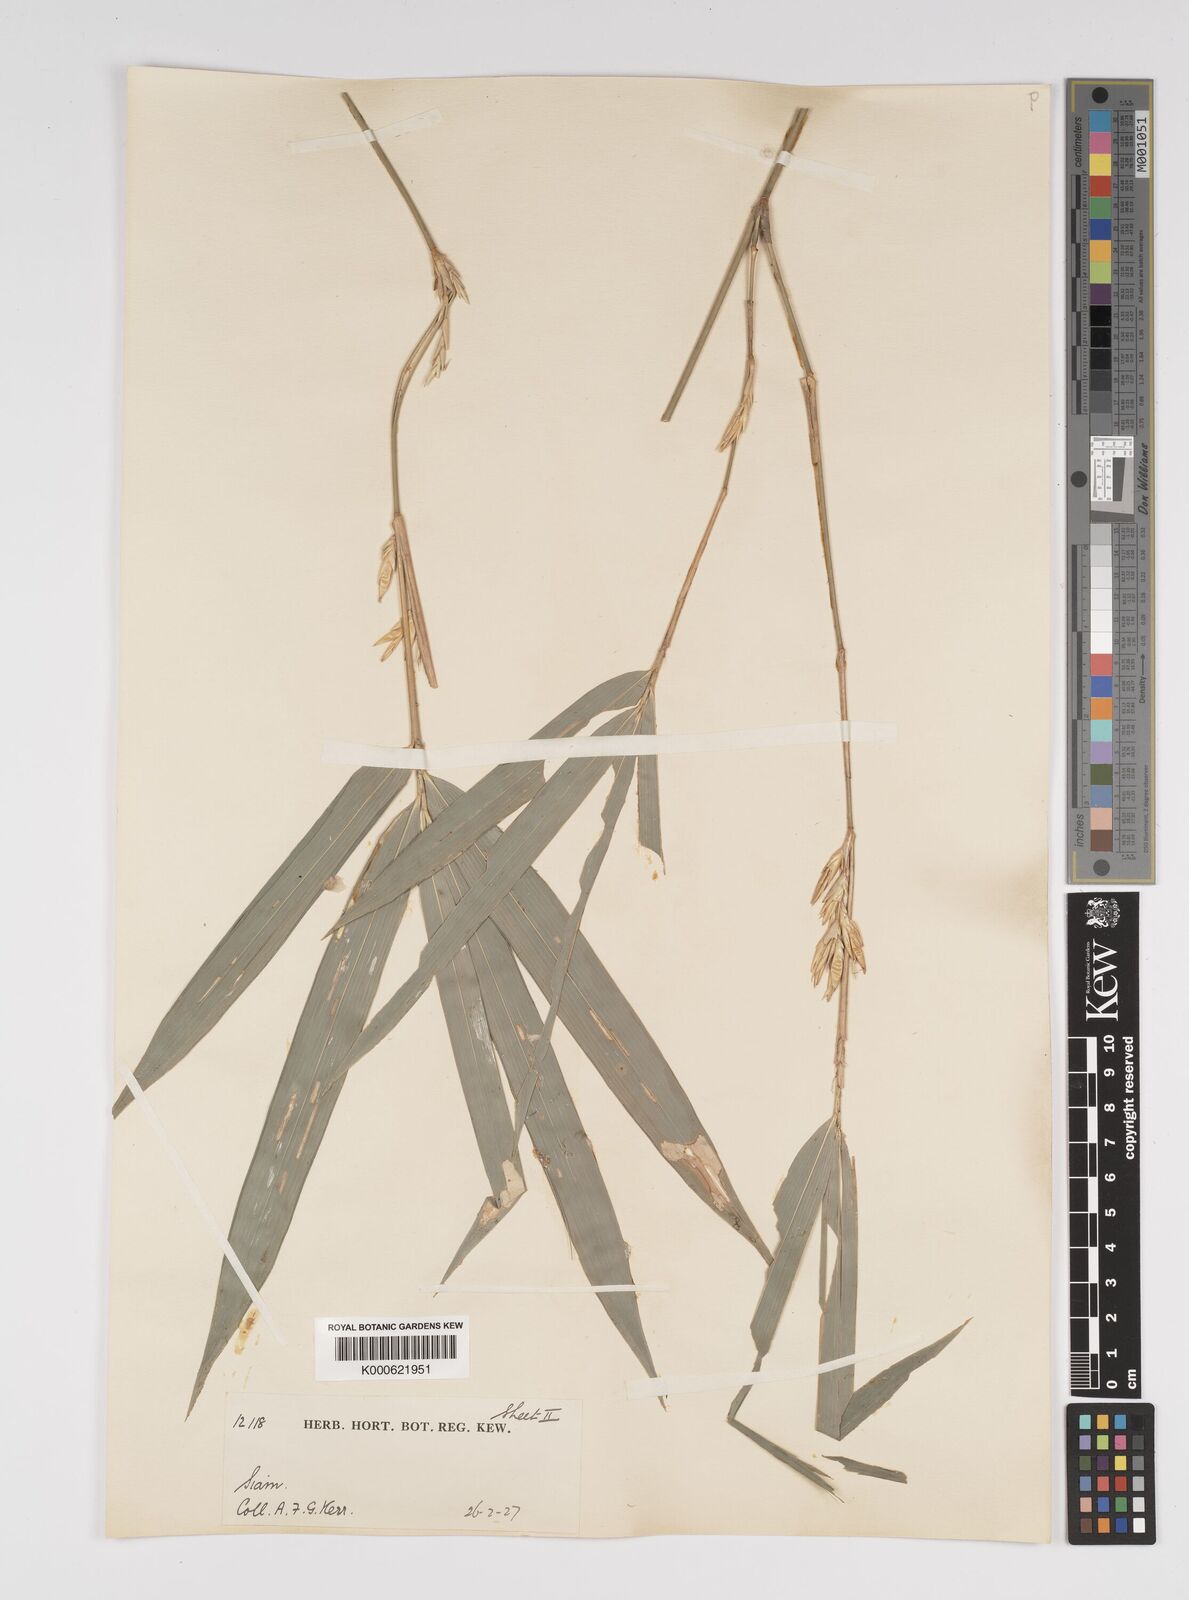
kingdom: Plantae
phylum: Tracheophyta
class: Liliopsida
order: Poales
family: Poaceae
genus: Bambusa
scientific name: Bambusa
